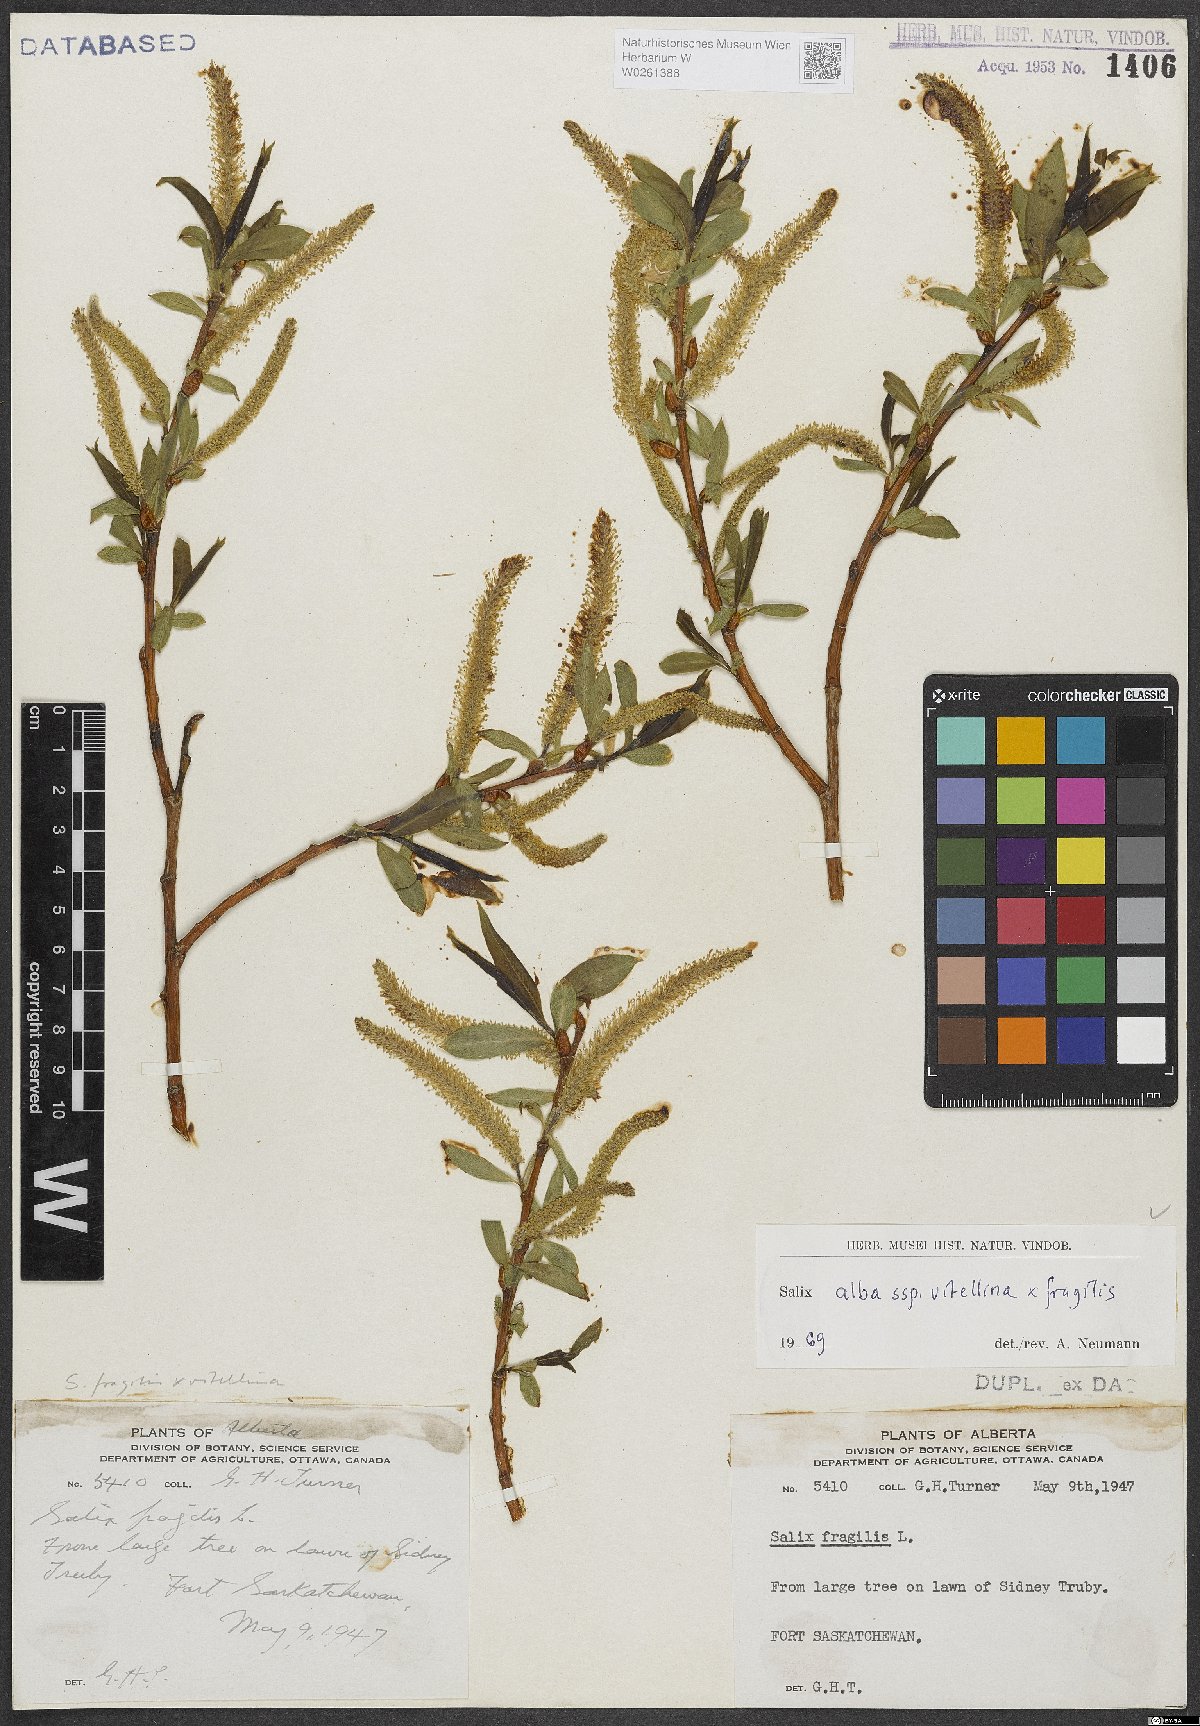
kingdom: Plantae
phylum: Tracheophyta
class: Magnoliopsida
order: Malpighiales
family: Salicaceae
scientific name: Salicaceae
